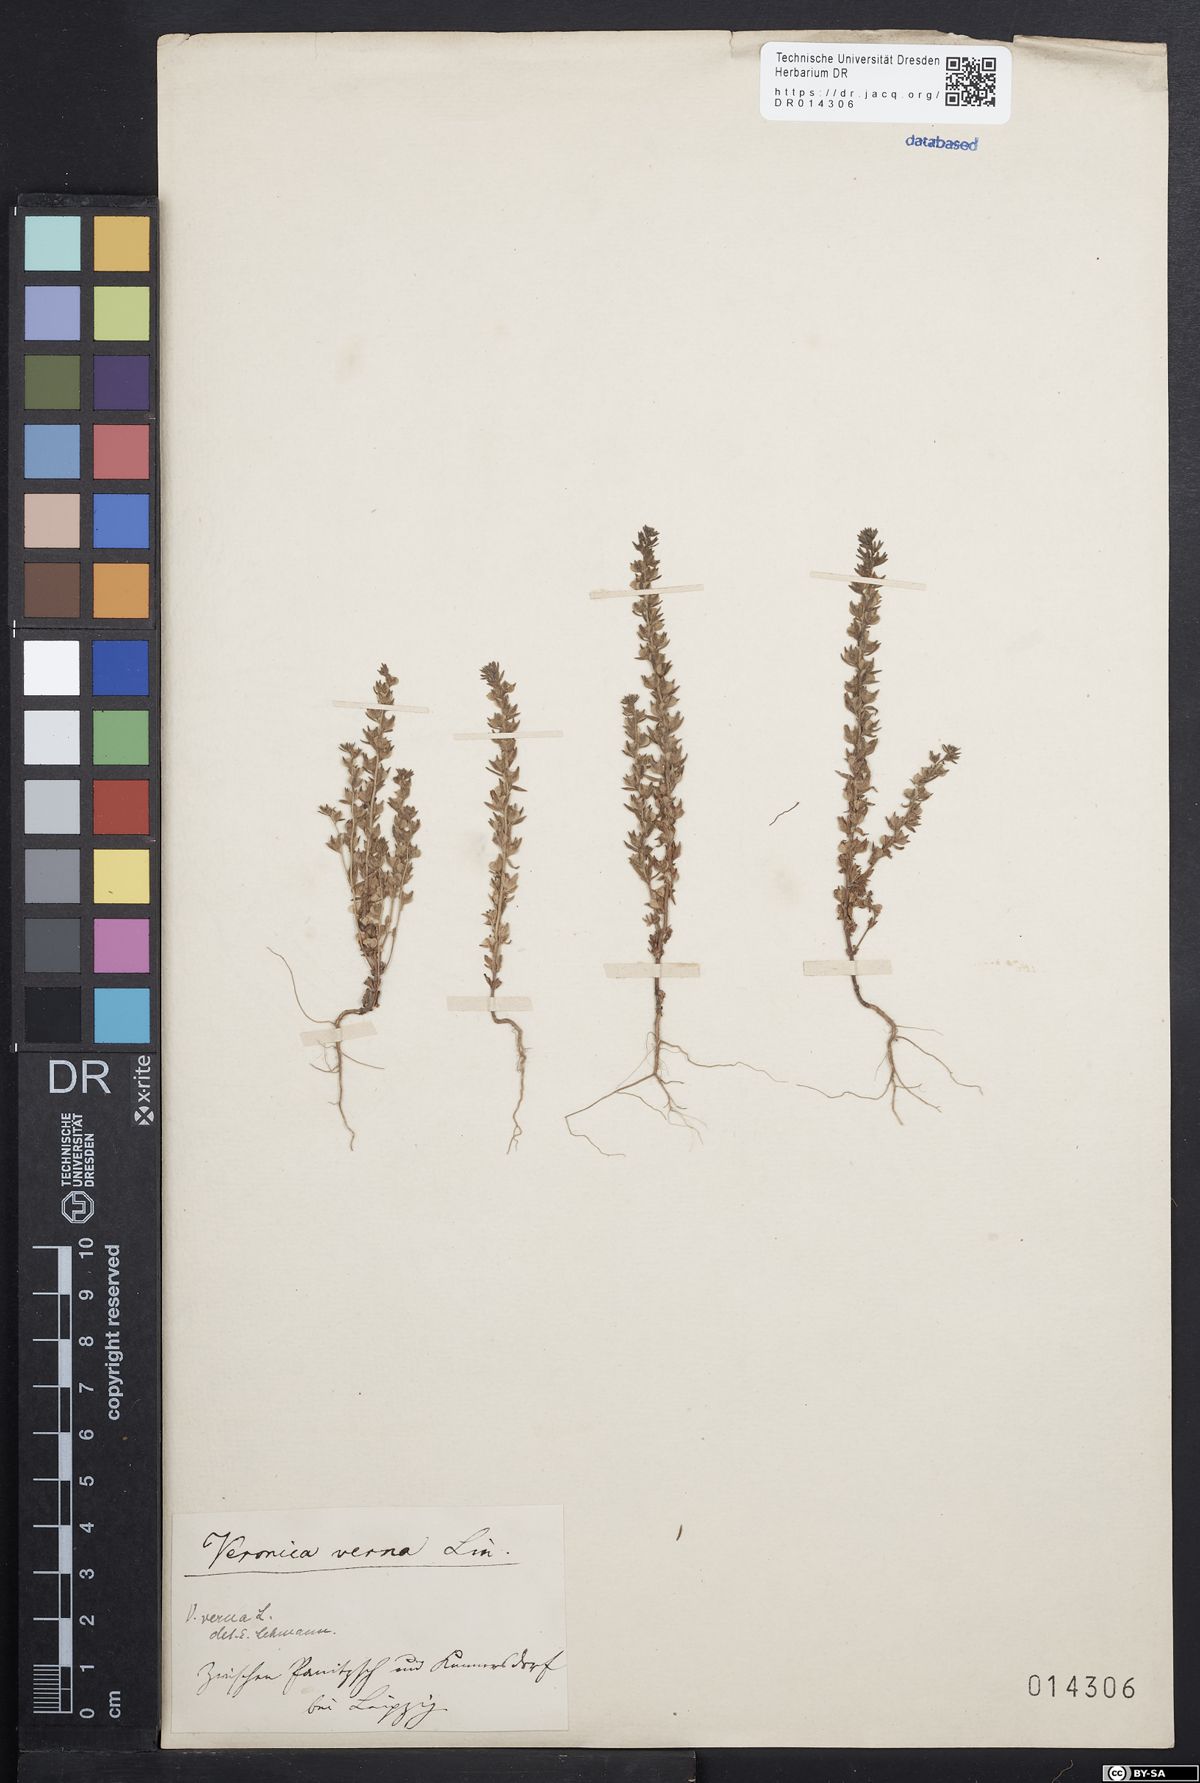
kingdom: Plantae
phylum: Tracheophyta
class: Magnoliopsida
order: Lamiales
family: Plantaginaceae
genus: Veronica
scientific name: Veronica verna
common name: Spring speedwell
